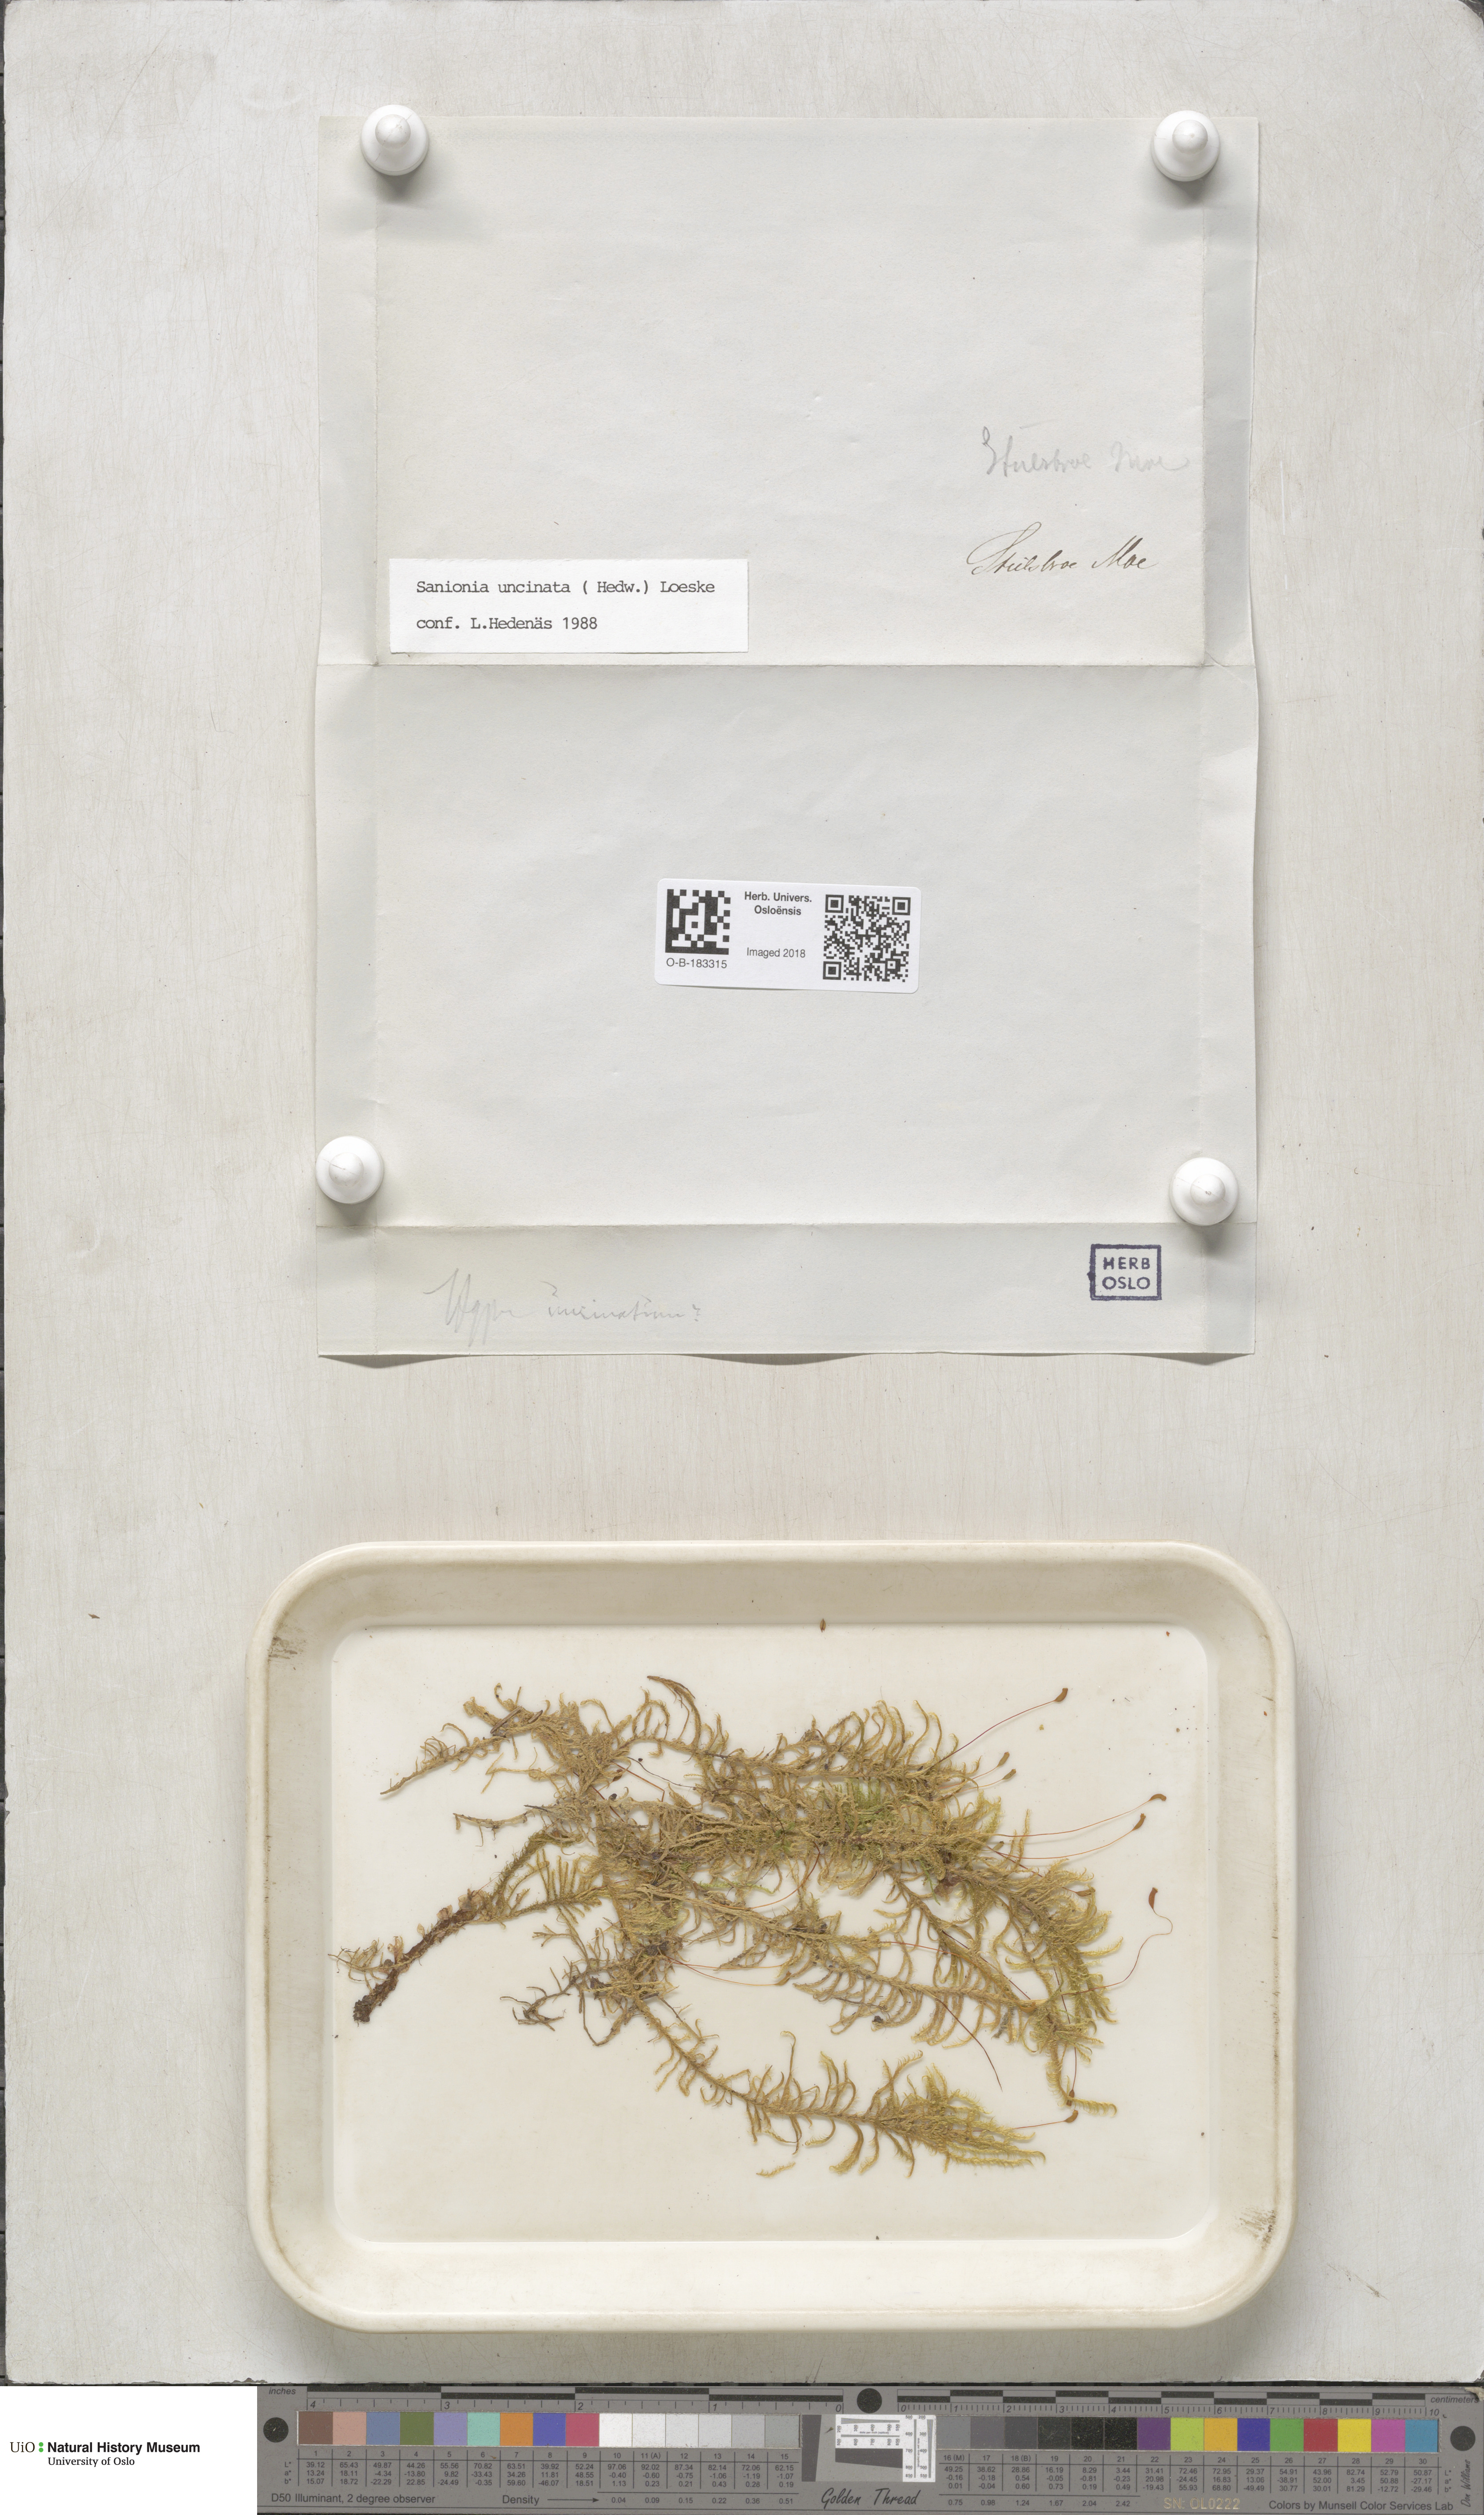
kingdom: Plantae
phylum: Bryophyta
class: Bryopsida
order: Hypnales
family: Scorpidiaceae
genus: Sanionia
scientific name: Sanionia uncinata
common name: Sickle moss
